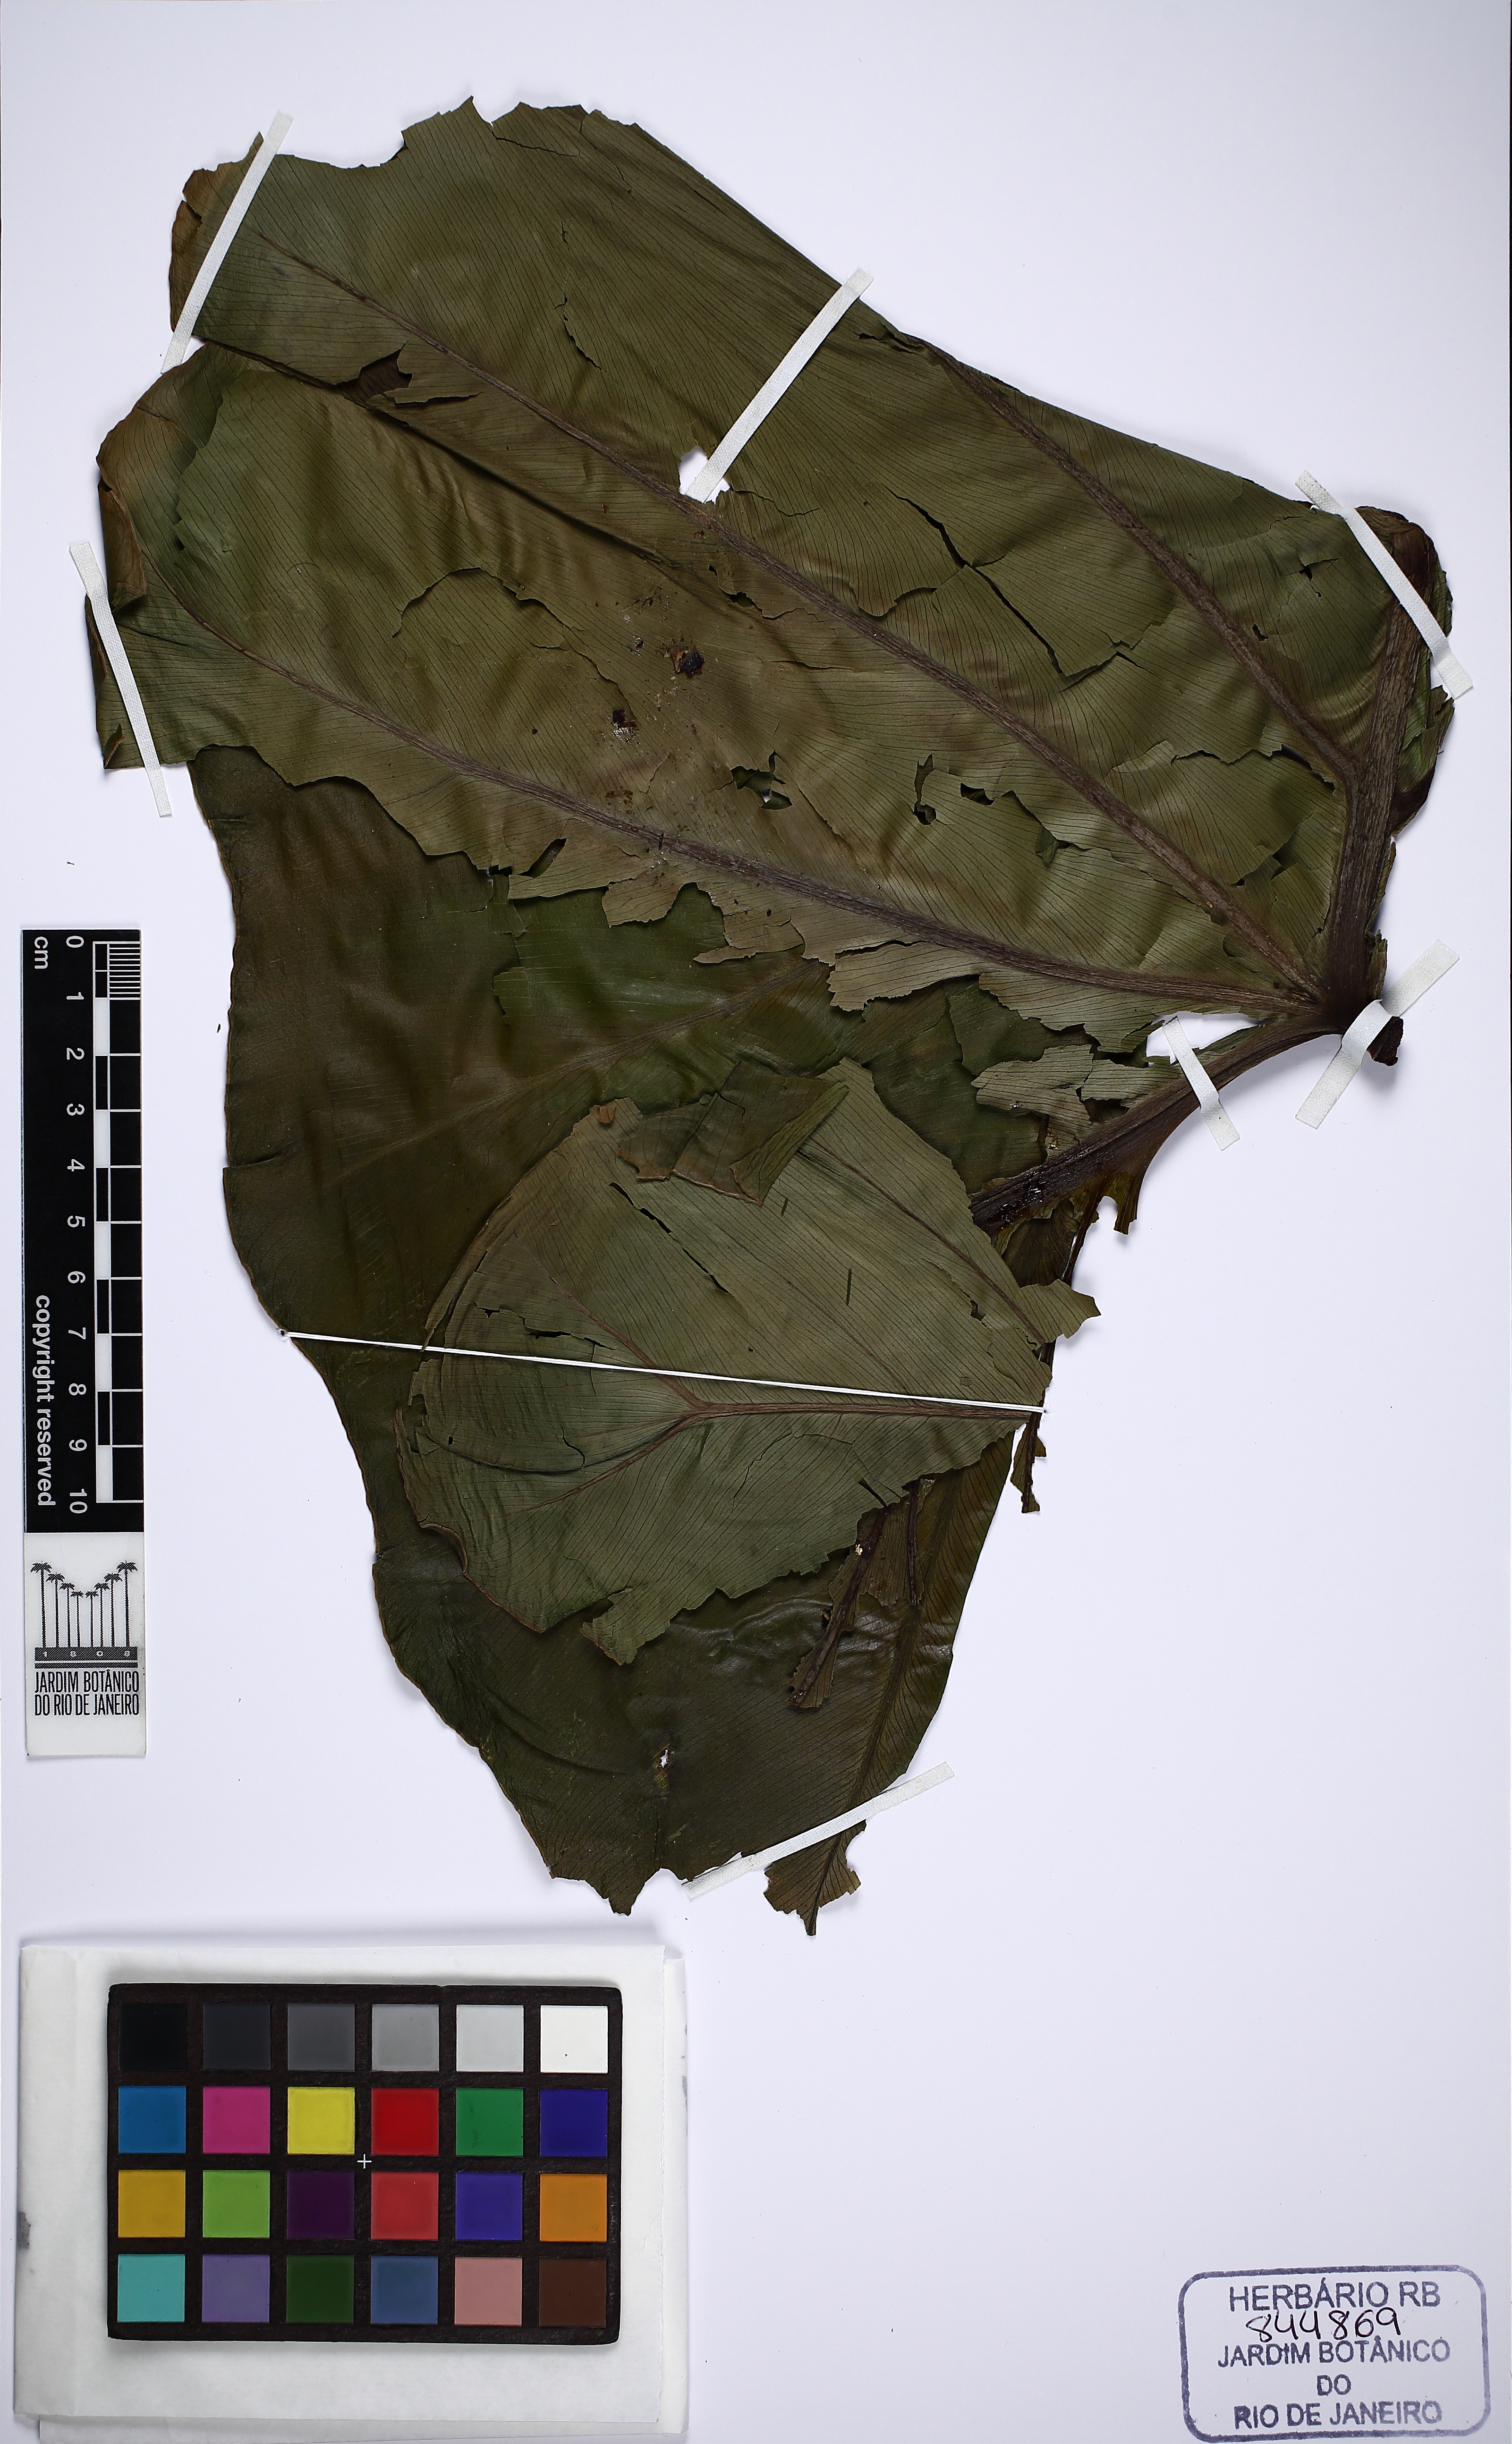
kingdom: Plantae
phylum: Tracheophyta
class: Liliopsida
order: Alismatales
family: Araceae
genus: Thaumatophyllum
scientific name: Thaumatophyllum williamsii
